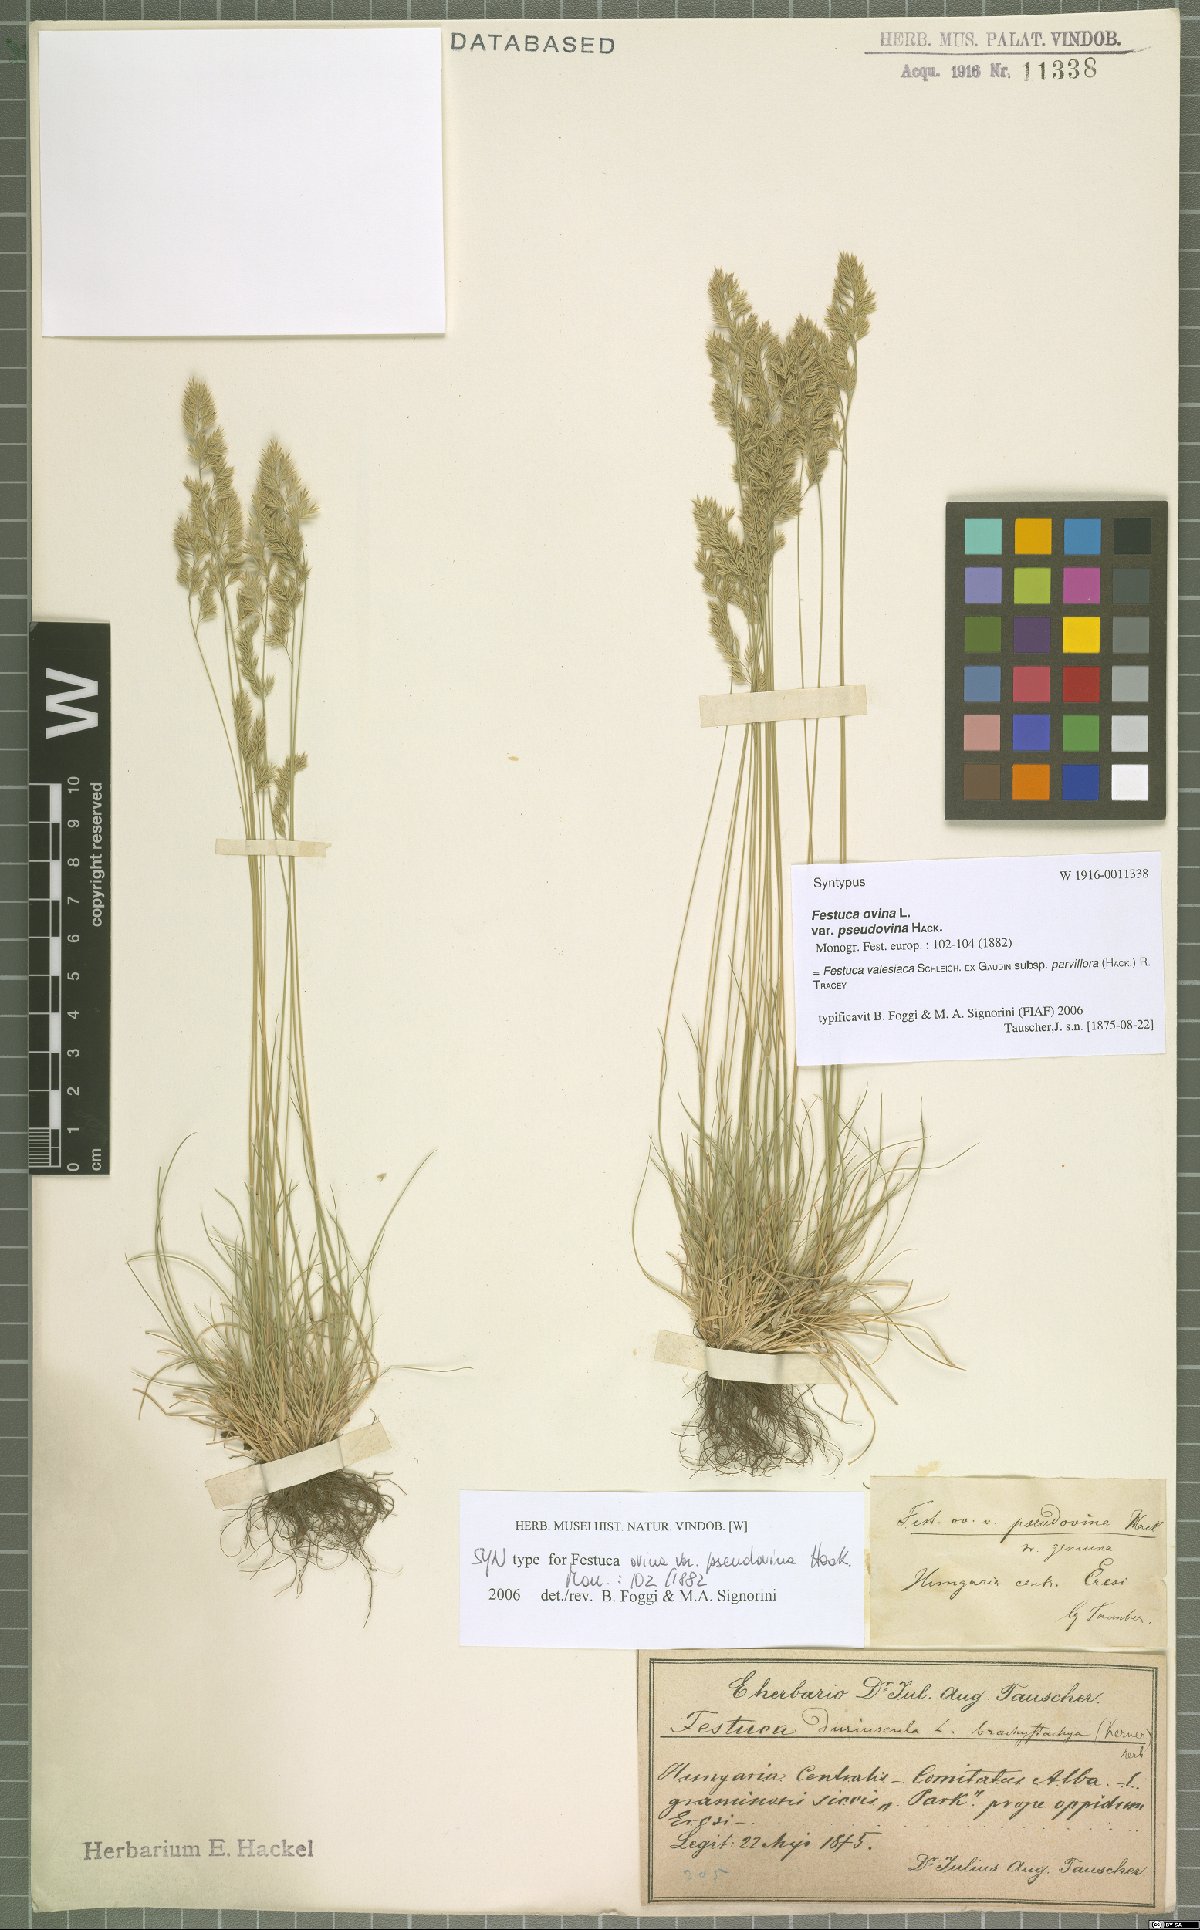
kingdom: Plantae
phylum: Tracheophyta
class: Liliopsida
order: Poales
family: Poaceae
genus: Festuca
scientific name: Festuca pulchra
